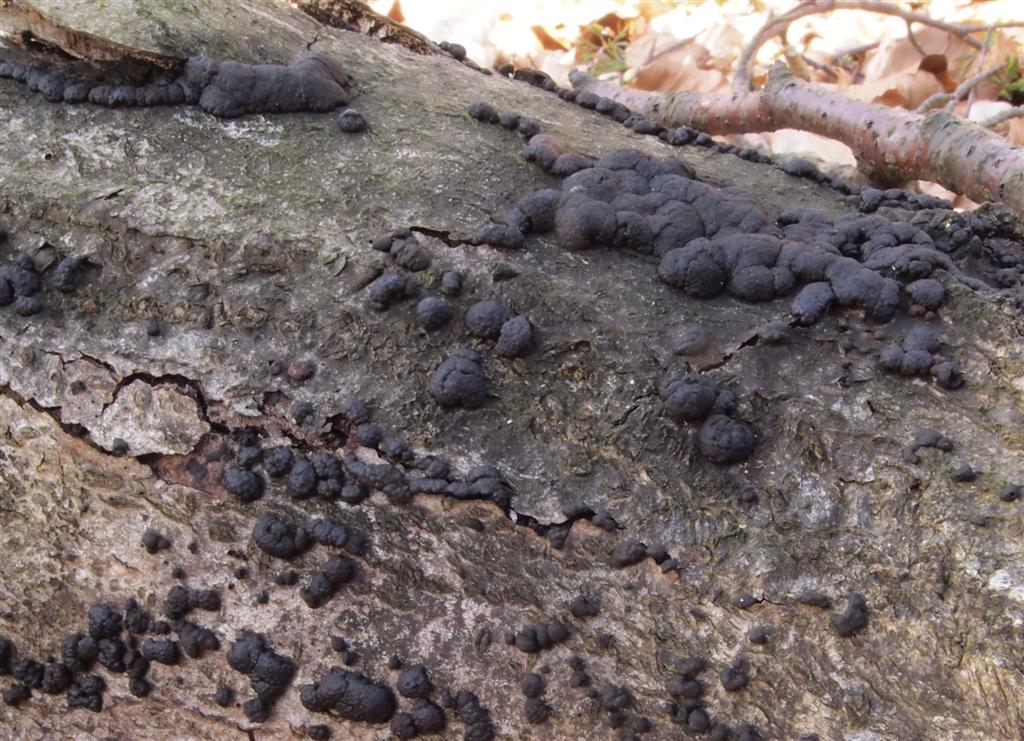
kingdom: Fungi
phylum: Ascomycota
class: Sordariomycetes
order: Xylariales
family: Hypoxylaceae
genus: Jackrogersella
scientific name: Jackrogersella cohaerens
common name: sammenflydende kulbær
